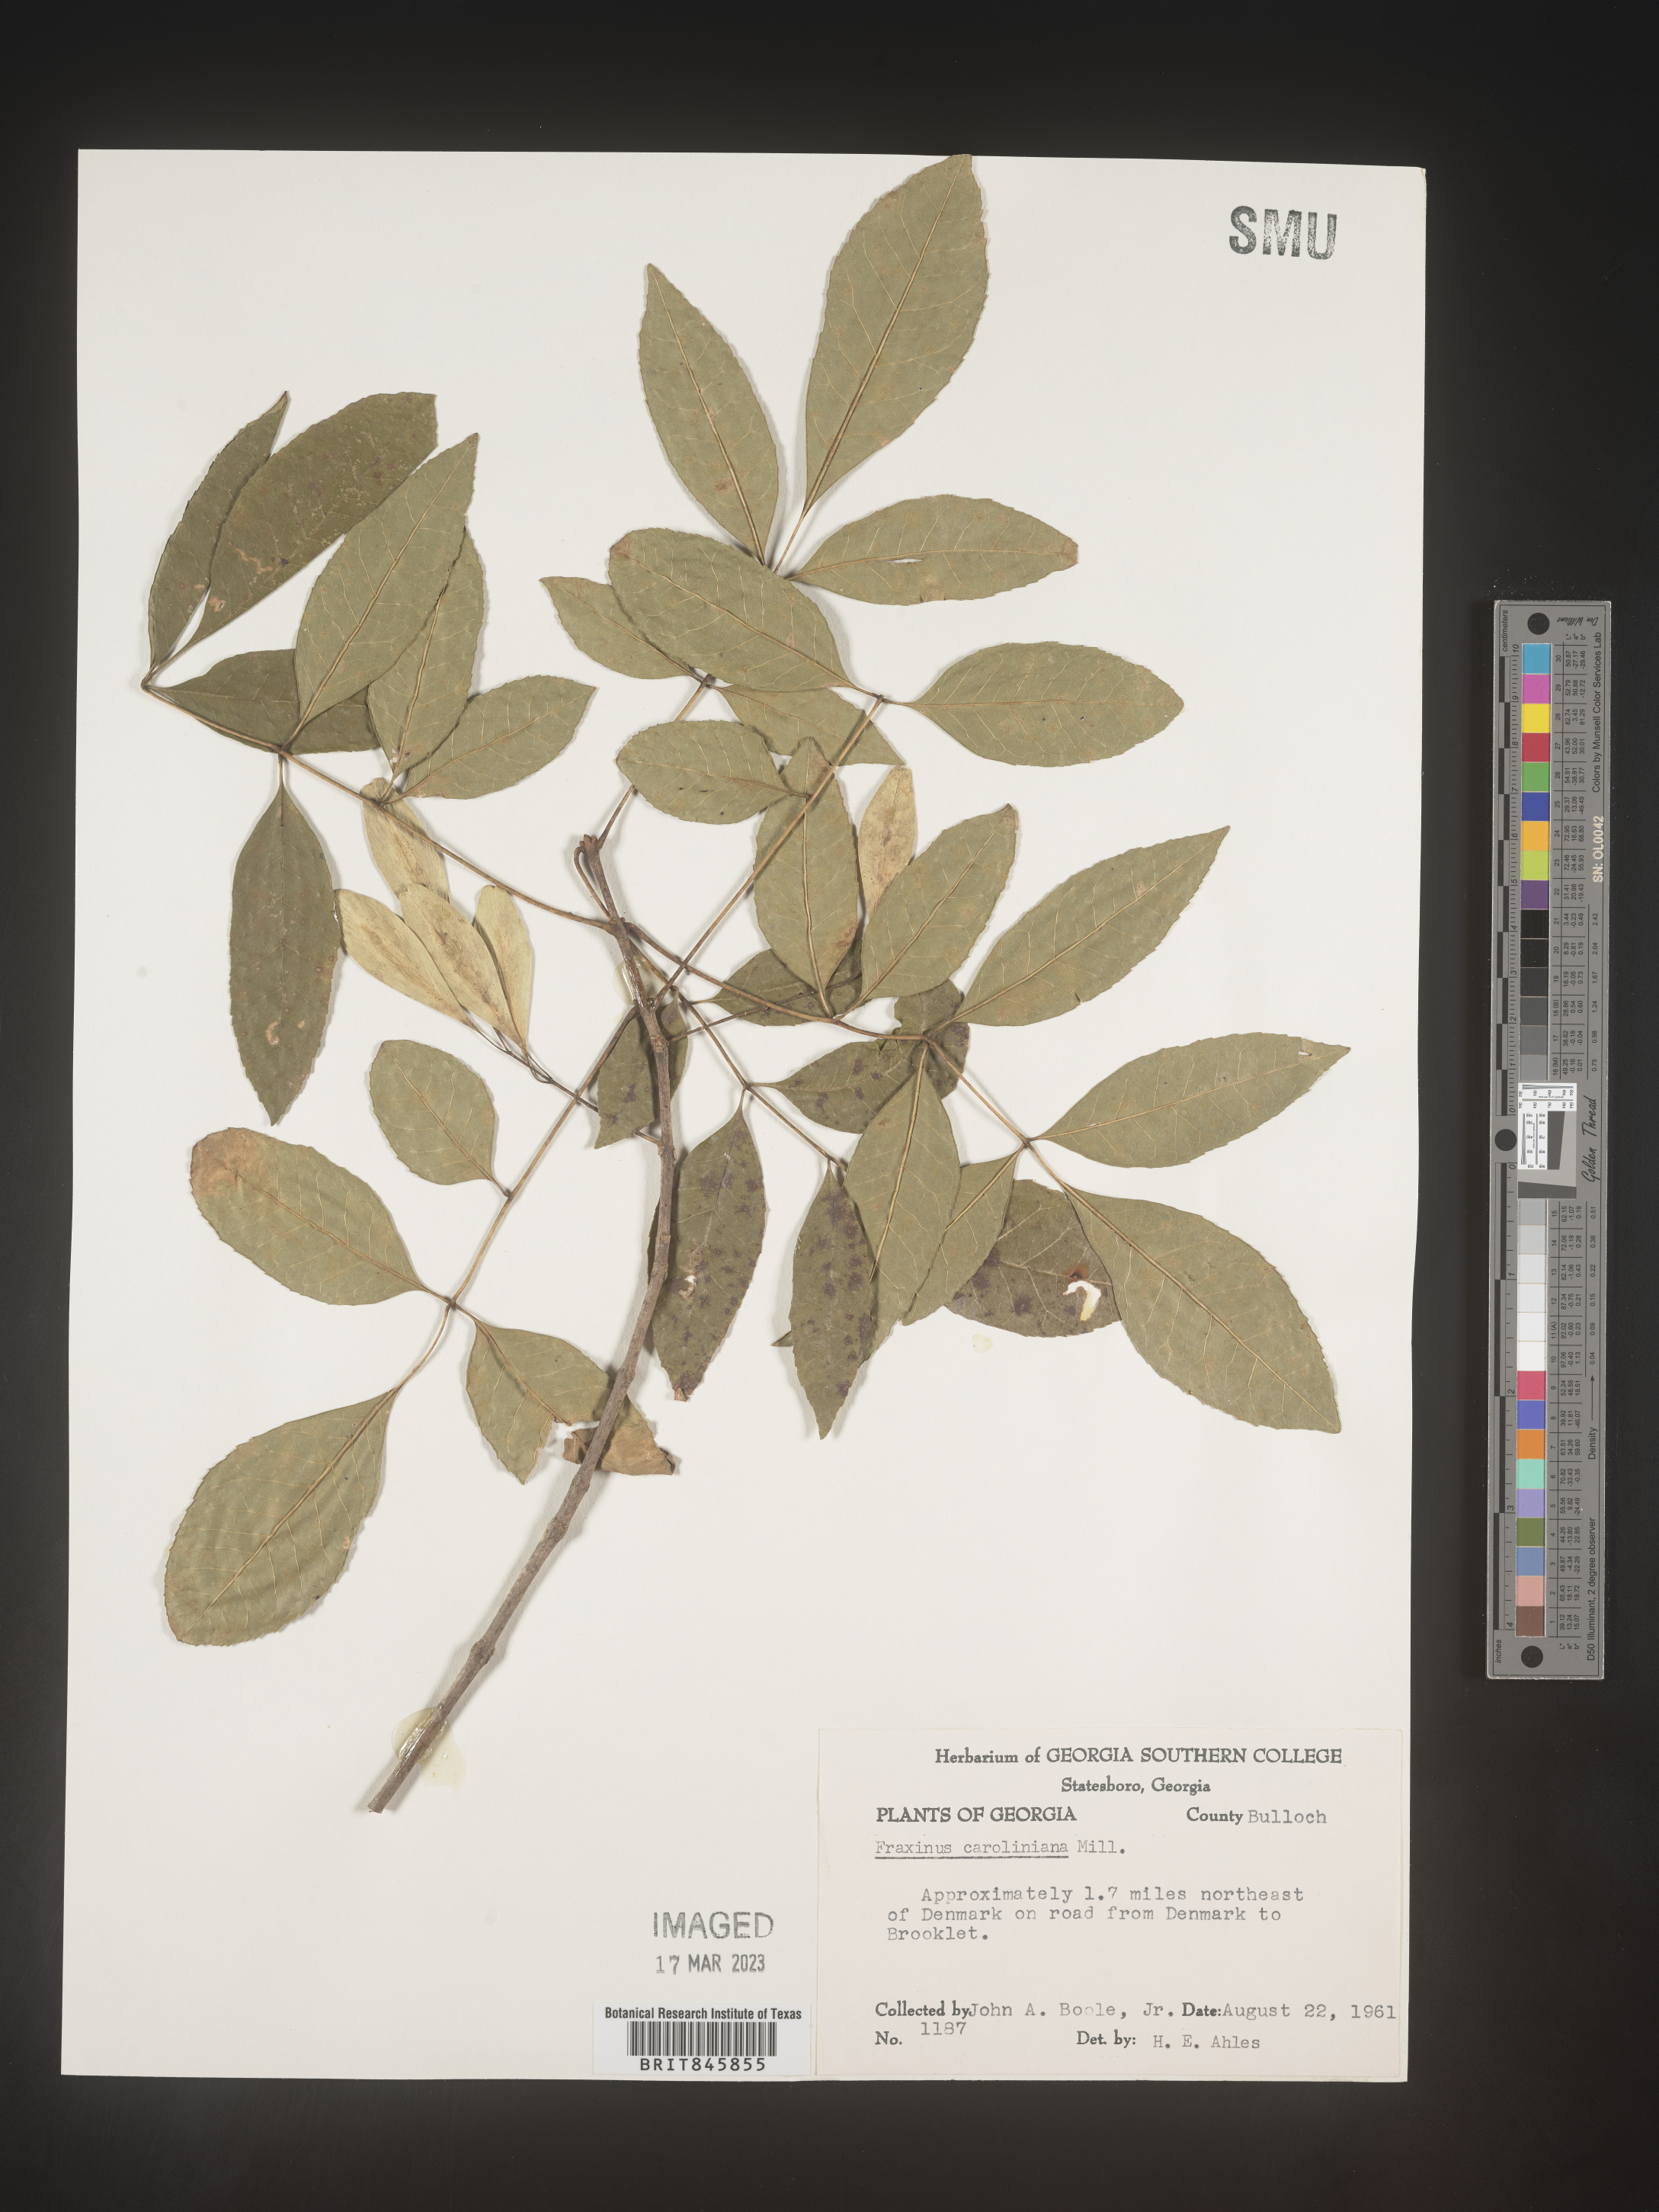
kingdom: Plantae
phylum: Tracheophyta
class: Magnoliopsida
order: Lamiales
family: Oleaceae
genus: Fraxinus
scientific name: Fraxinus caroliniana
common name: Carolina ash
